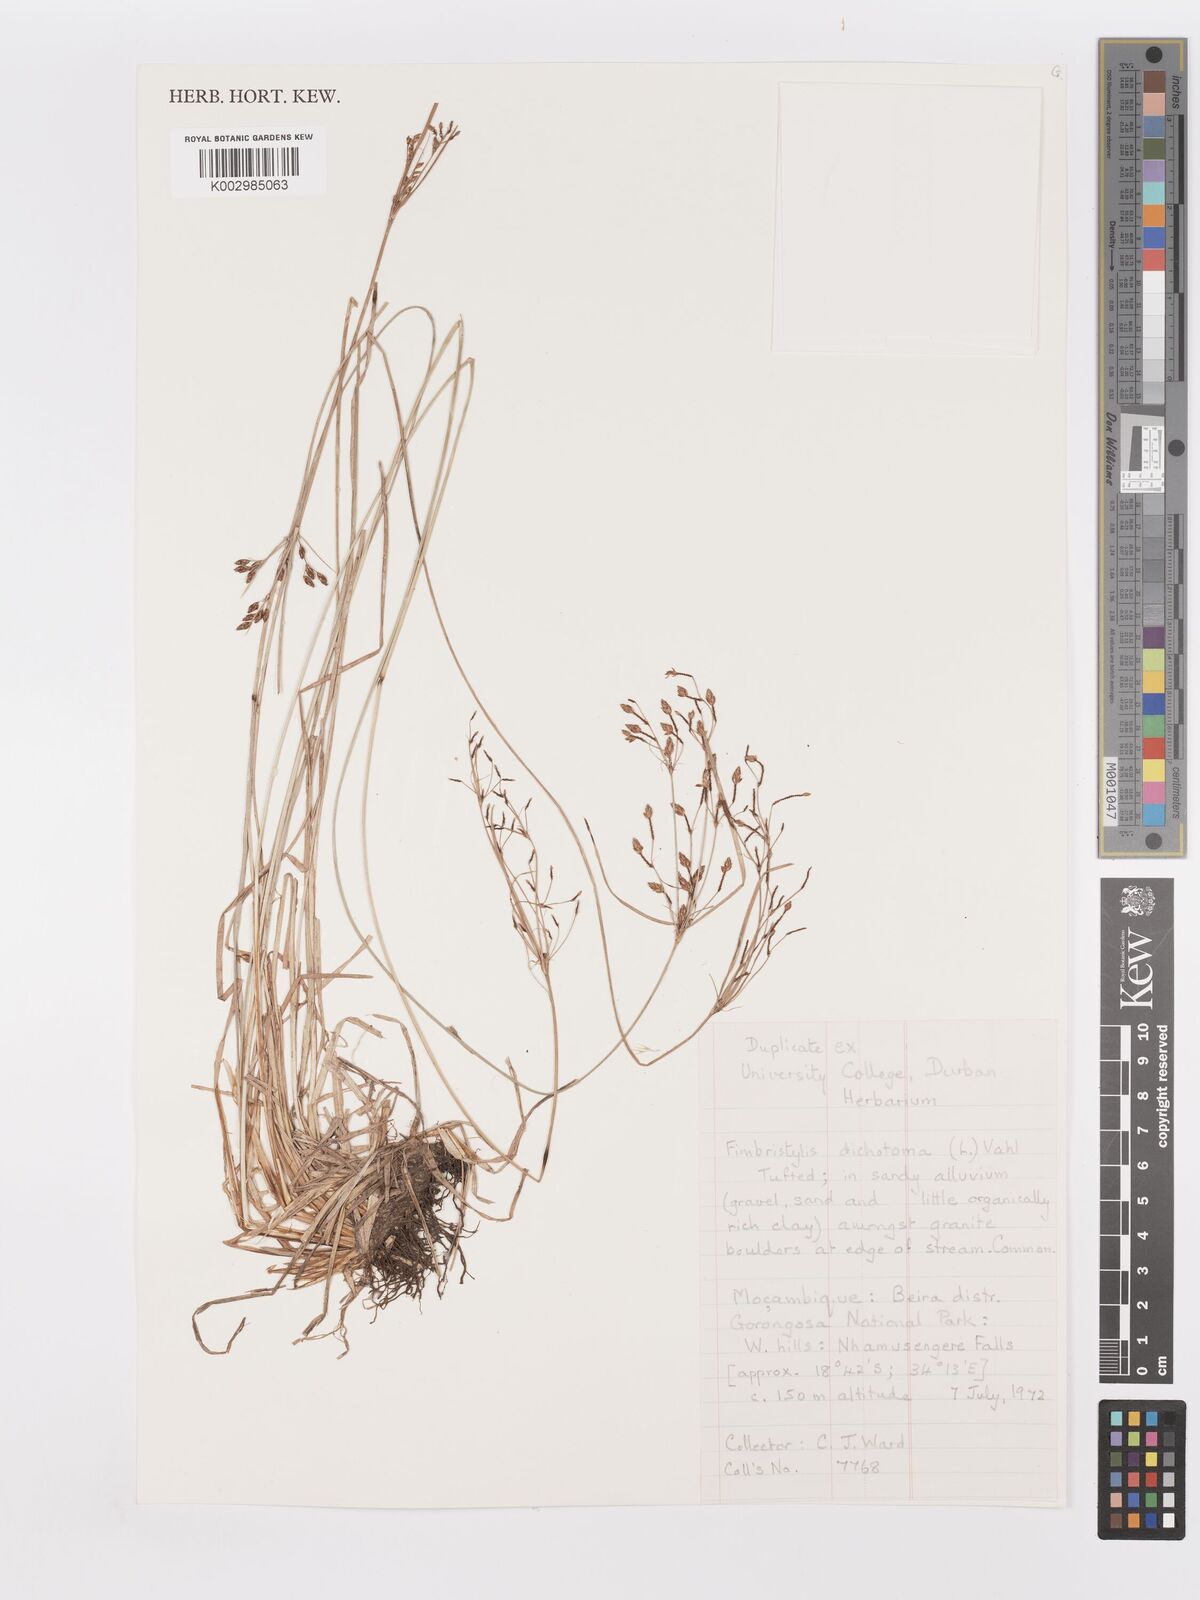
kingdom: Plantae
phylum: Tracheophyta
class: Liliopsida
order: Poales
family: Cyperaceae
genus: Fimbristylis
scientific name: Fimbristylis dichotoma
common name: Forked fimbry
